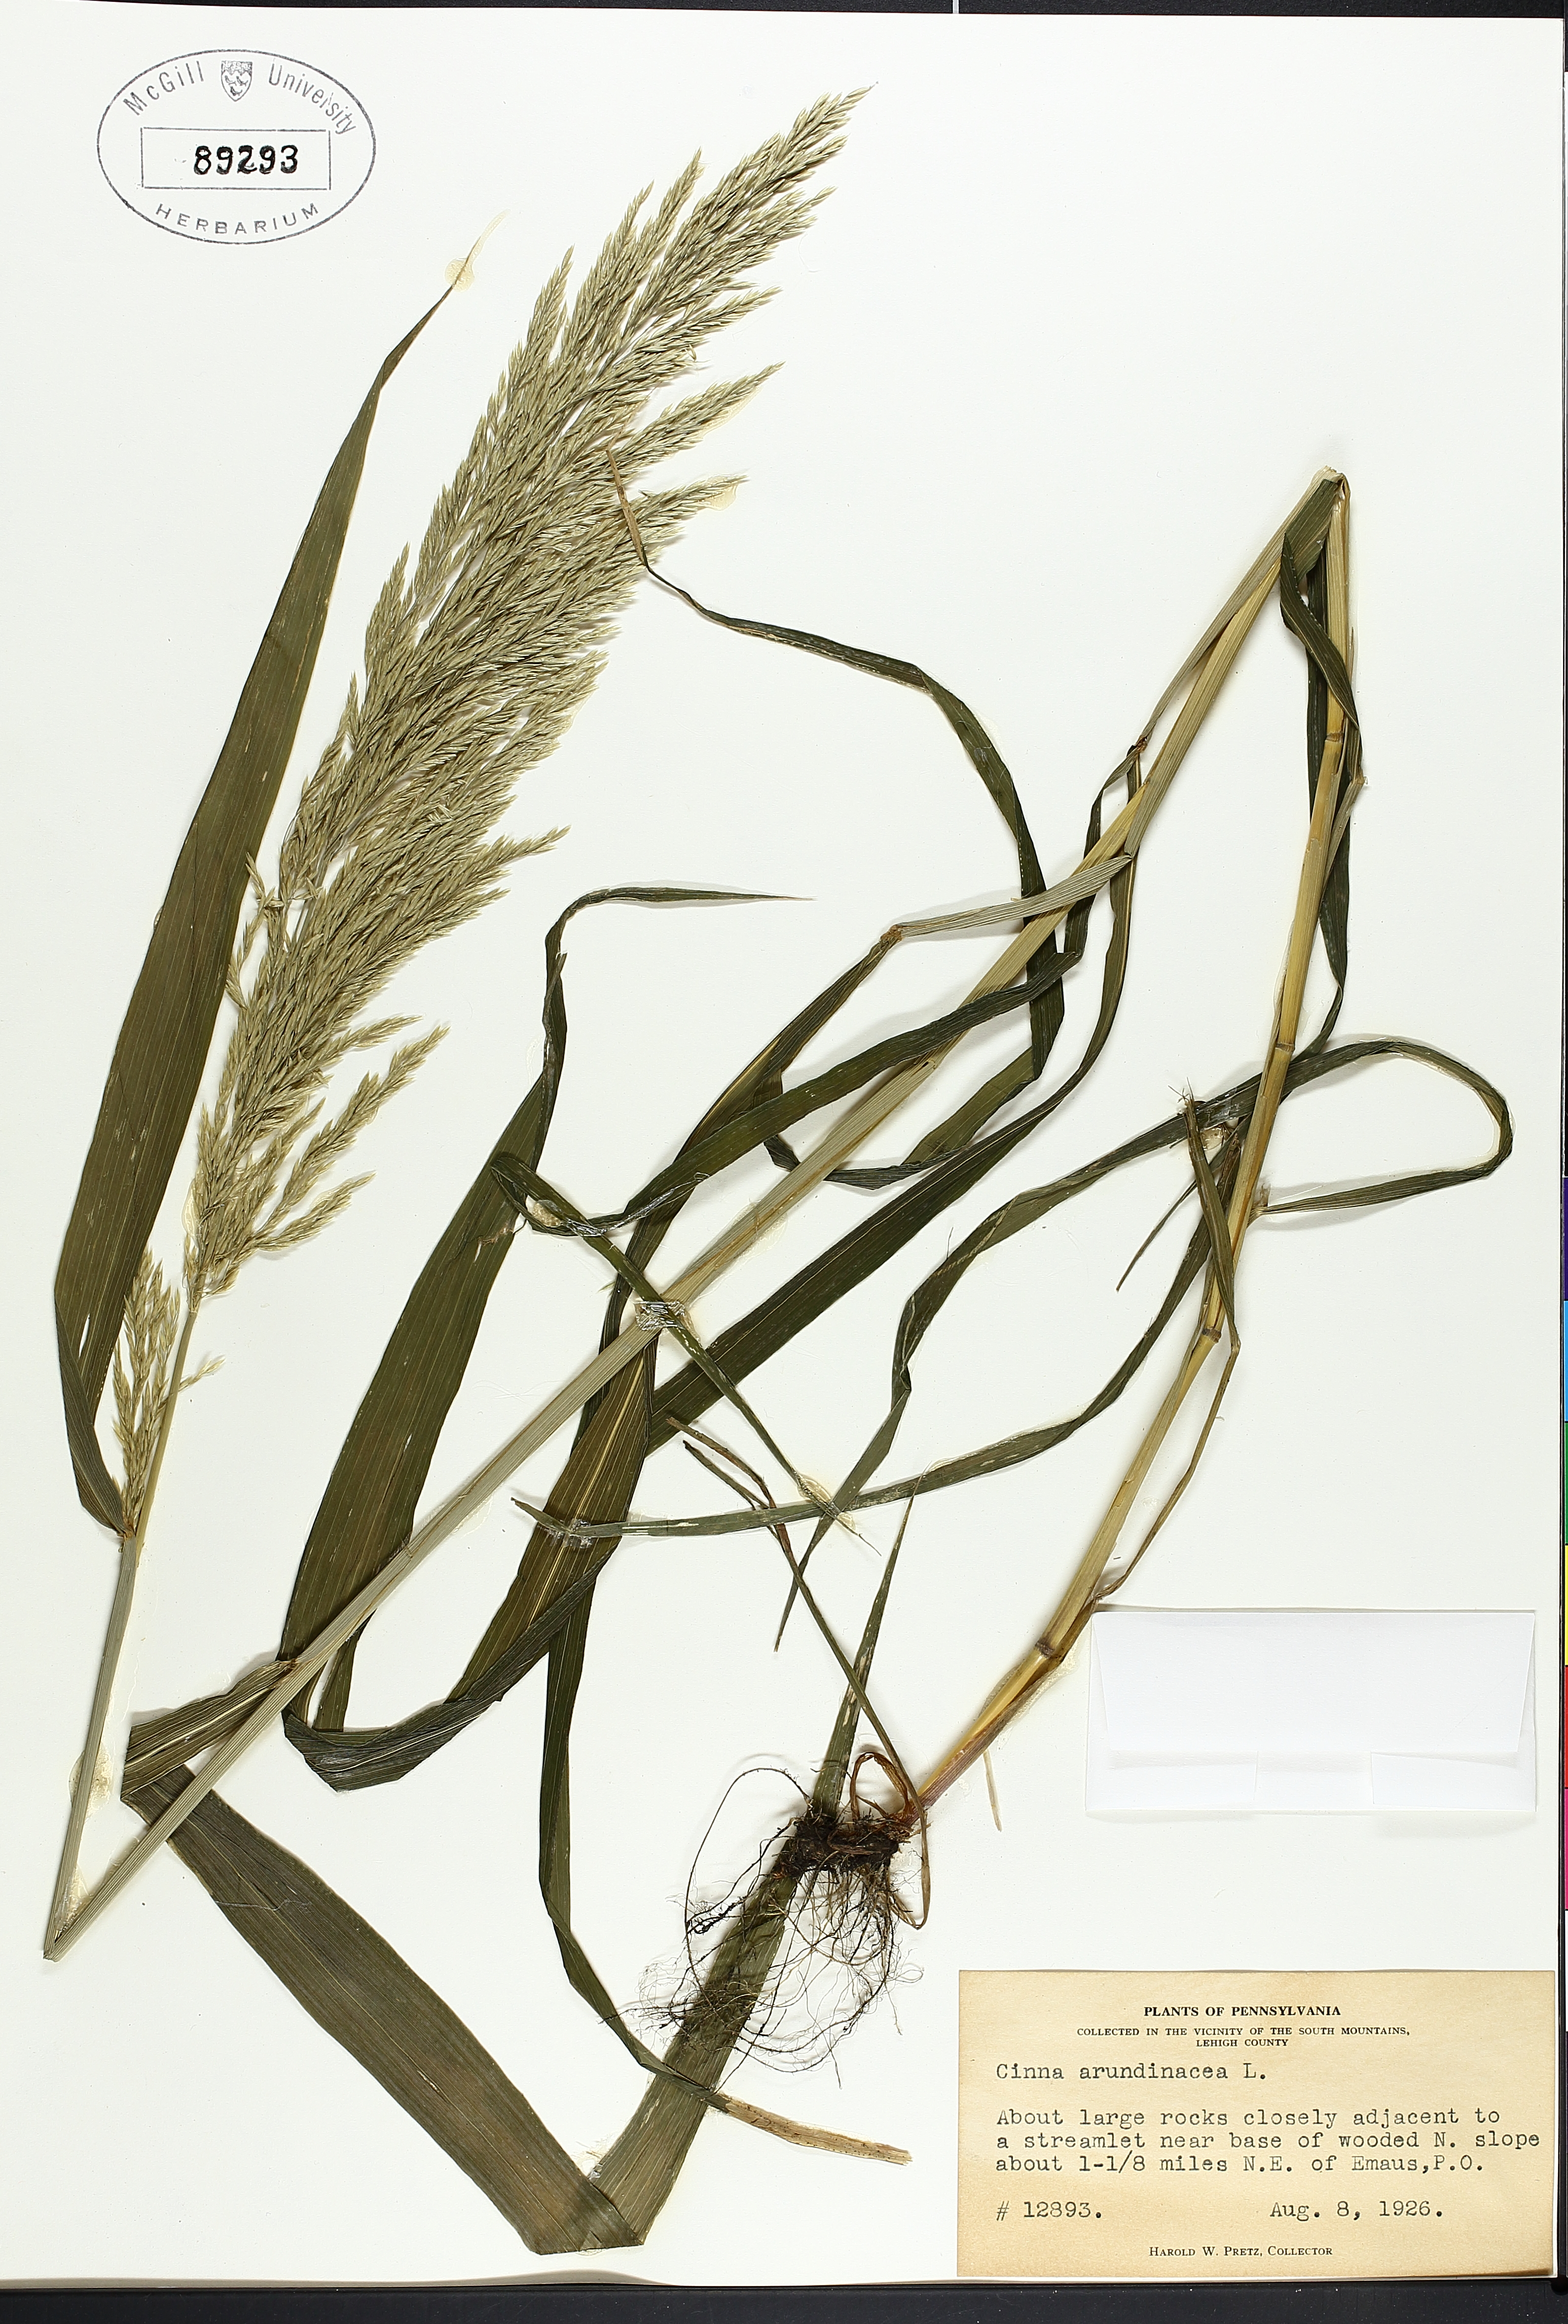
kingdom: Plantae
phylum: Tracheophyta
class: Liliopsida
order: Poales
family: Cyperaceae
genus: Scirpus
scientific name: Scirpus cyperinus
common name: Black-sheathed bulrush
